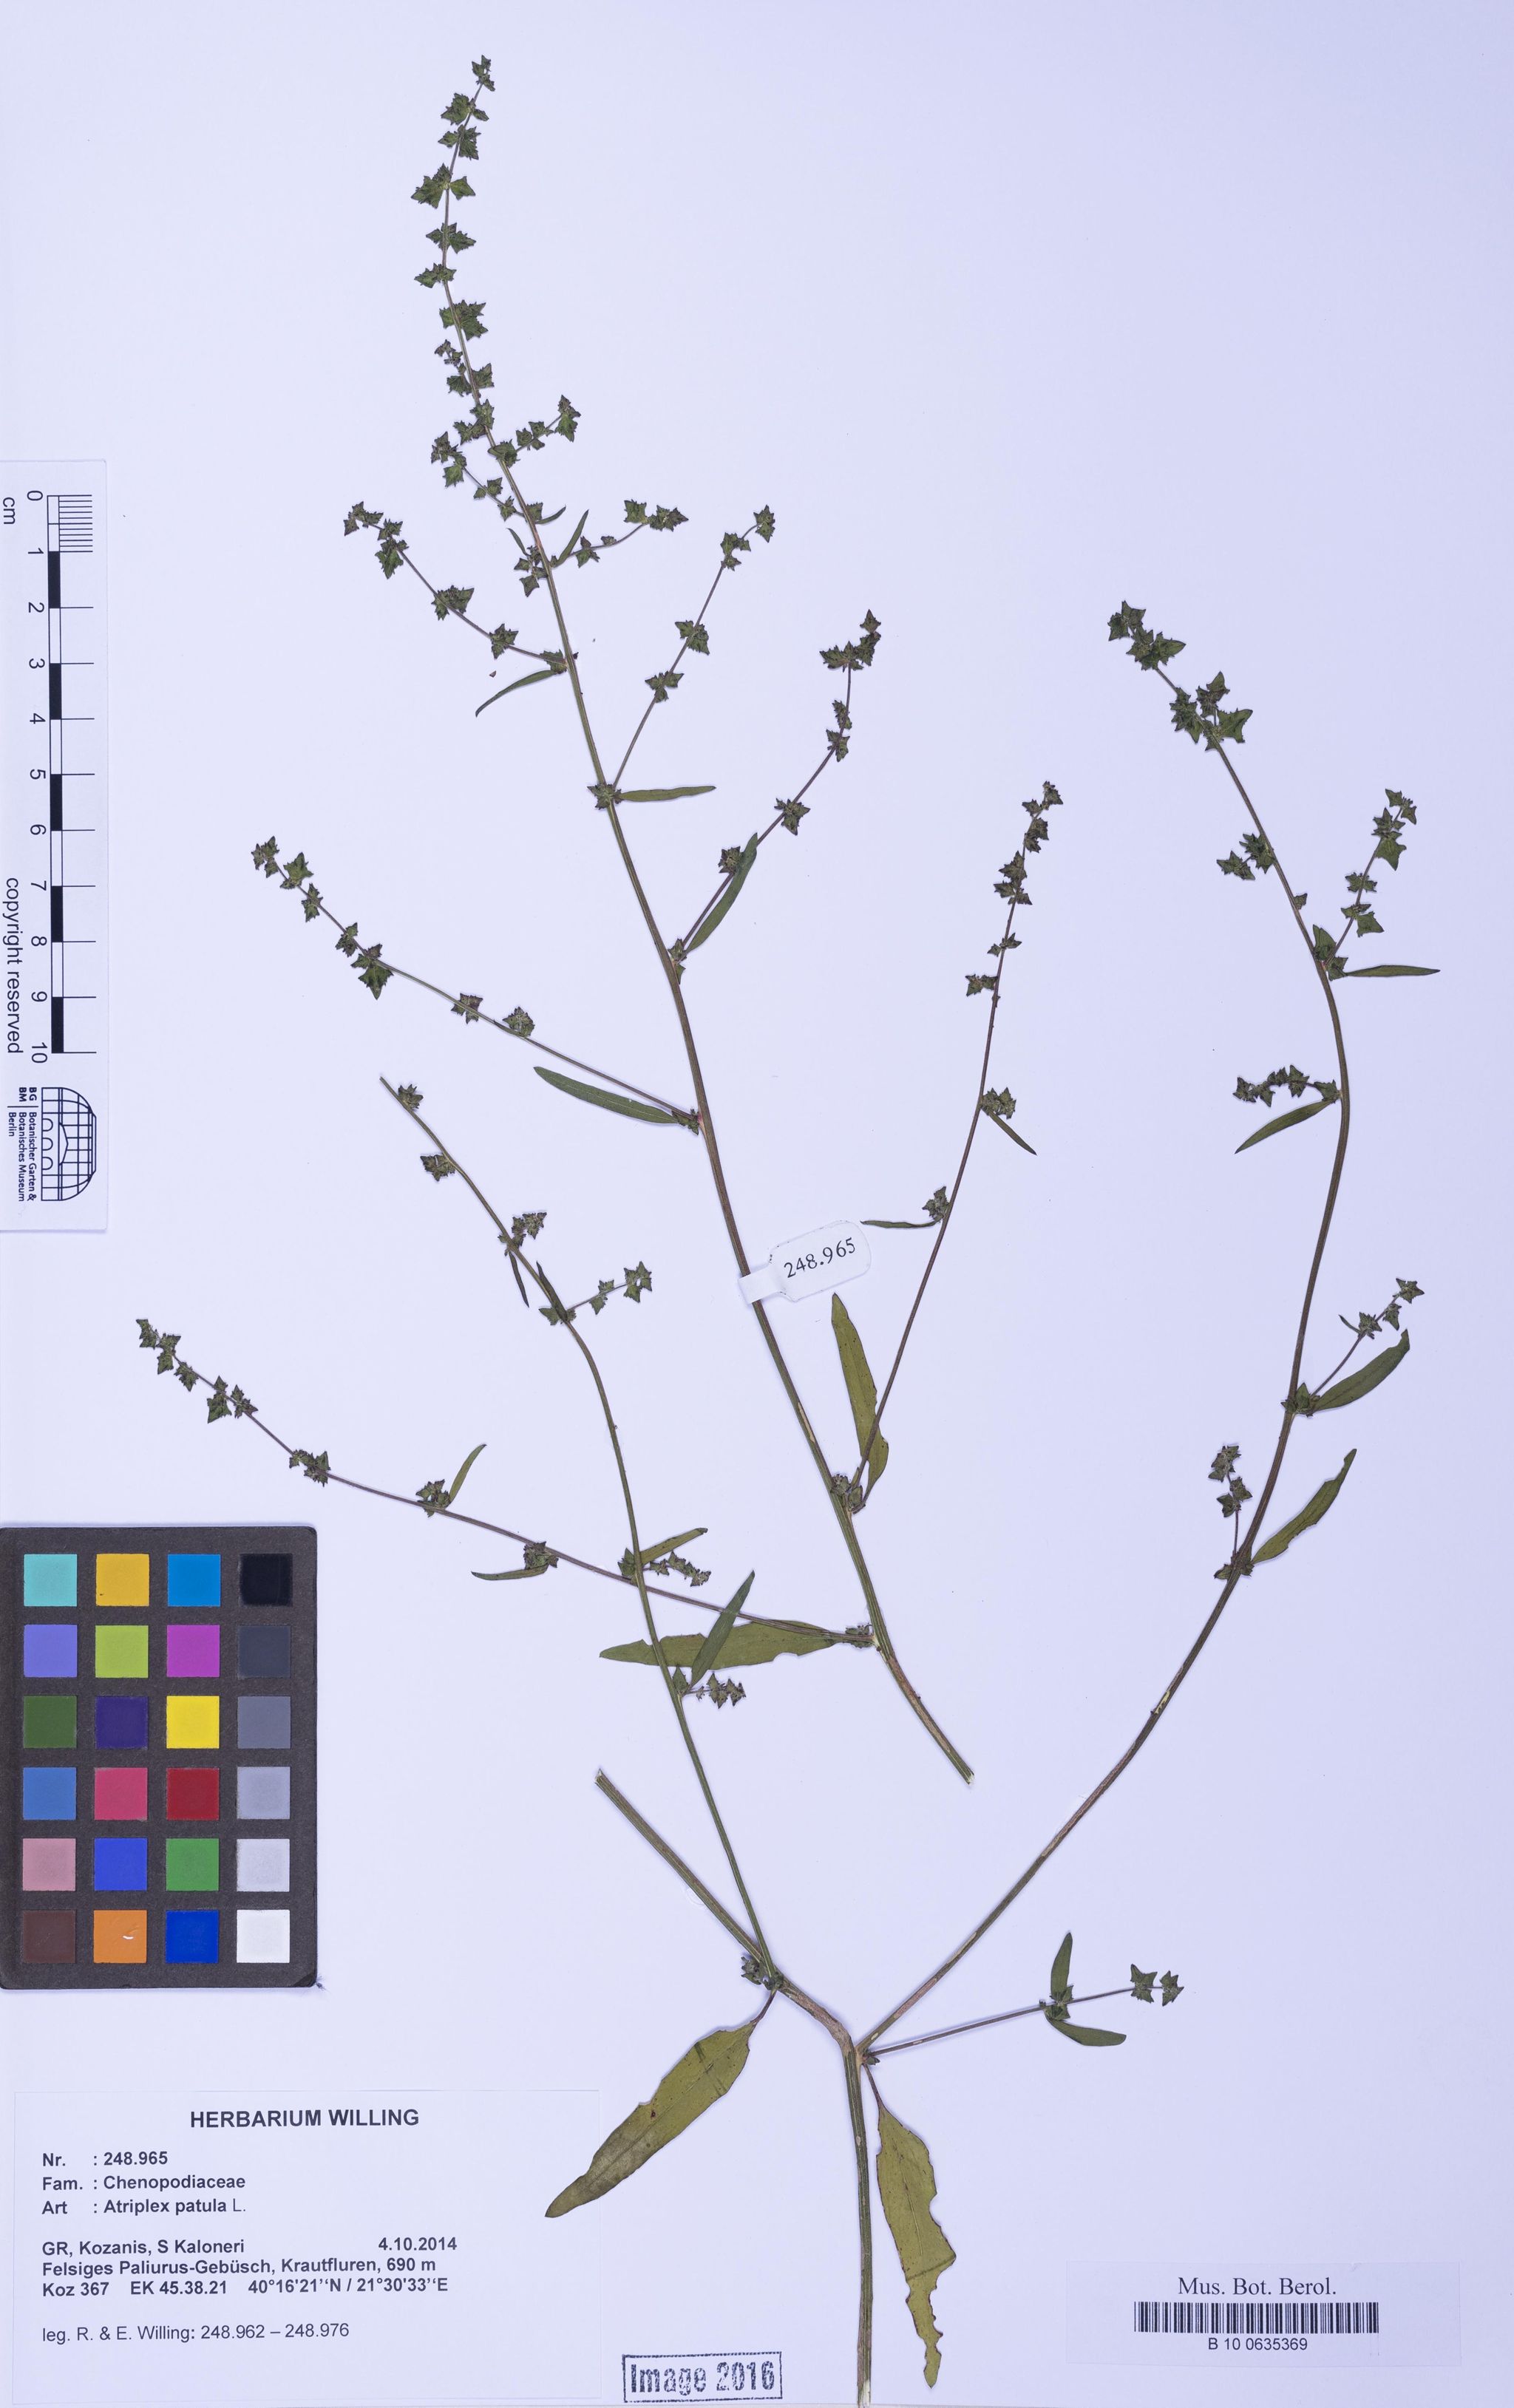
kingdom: Plantae
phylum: Tracheophyta
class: Magnoliopsida
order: Caryophyllales
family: Amaranthaceae
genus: Atriplex
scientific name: Atriplex patula
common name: Common orache
